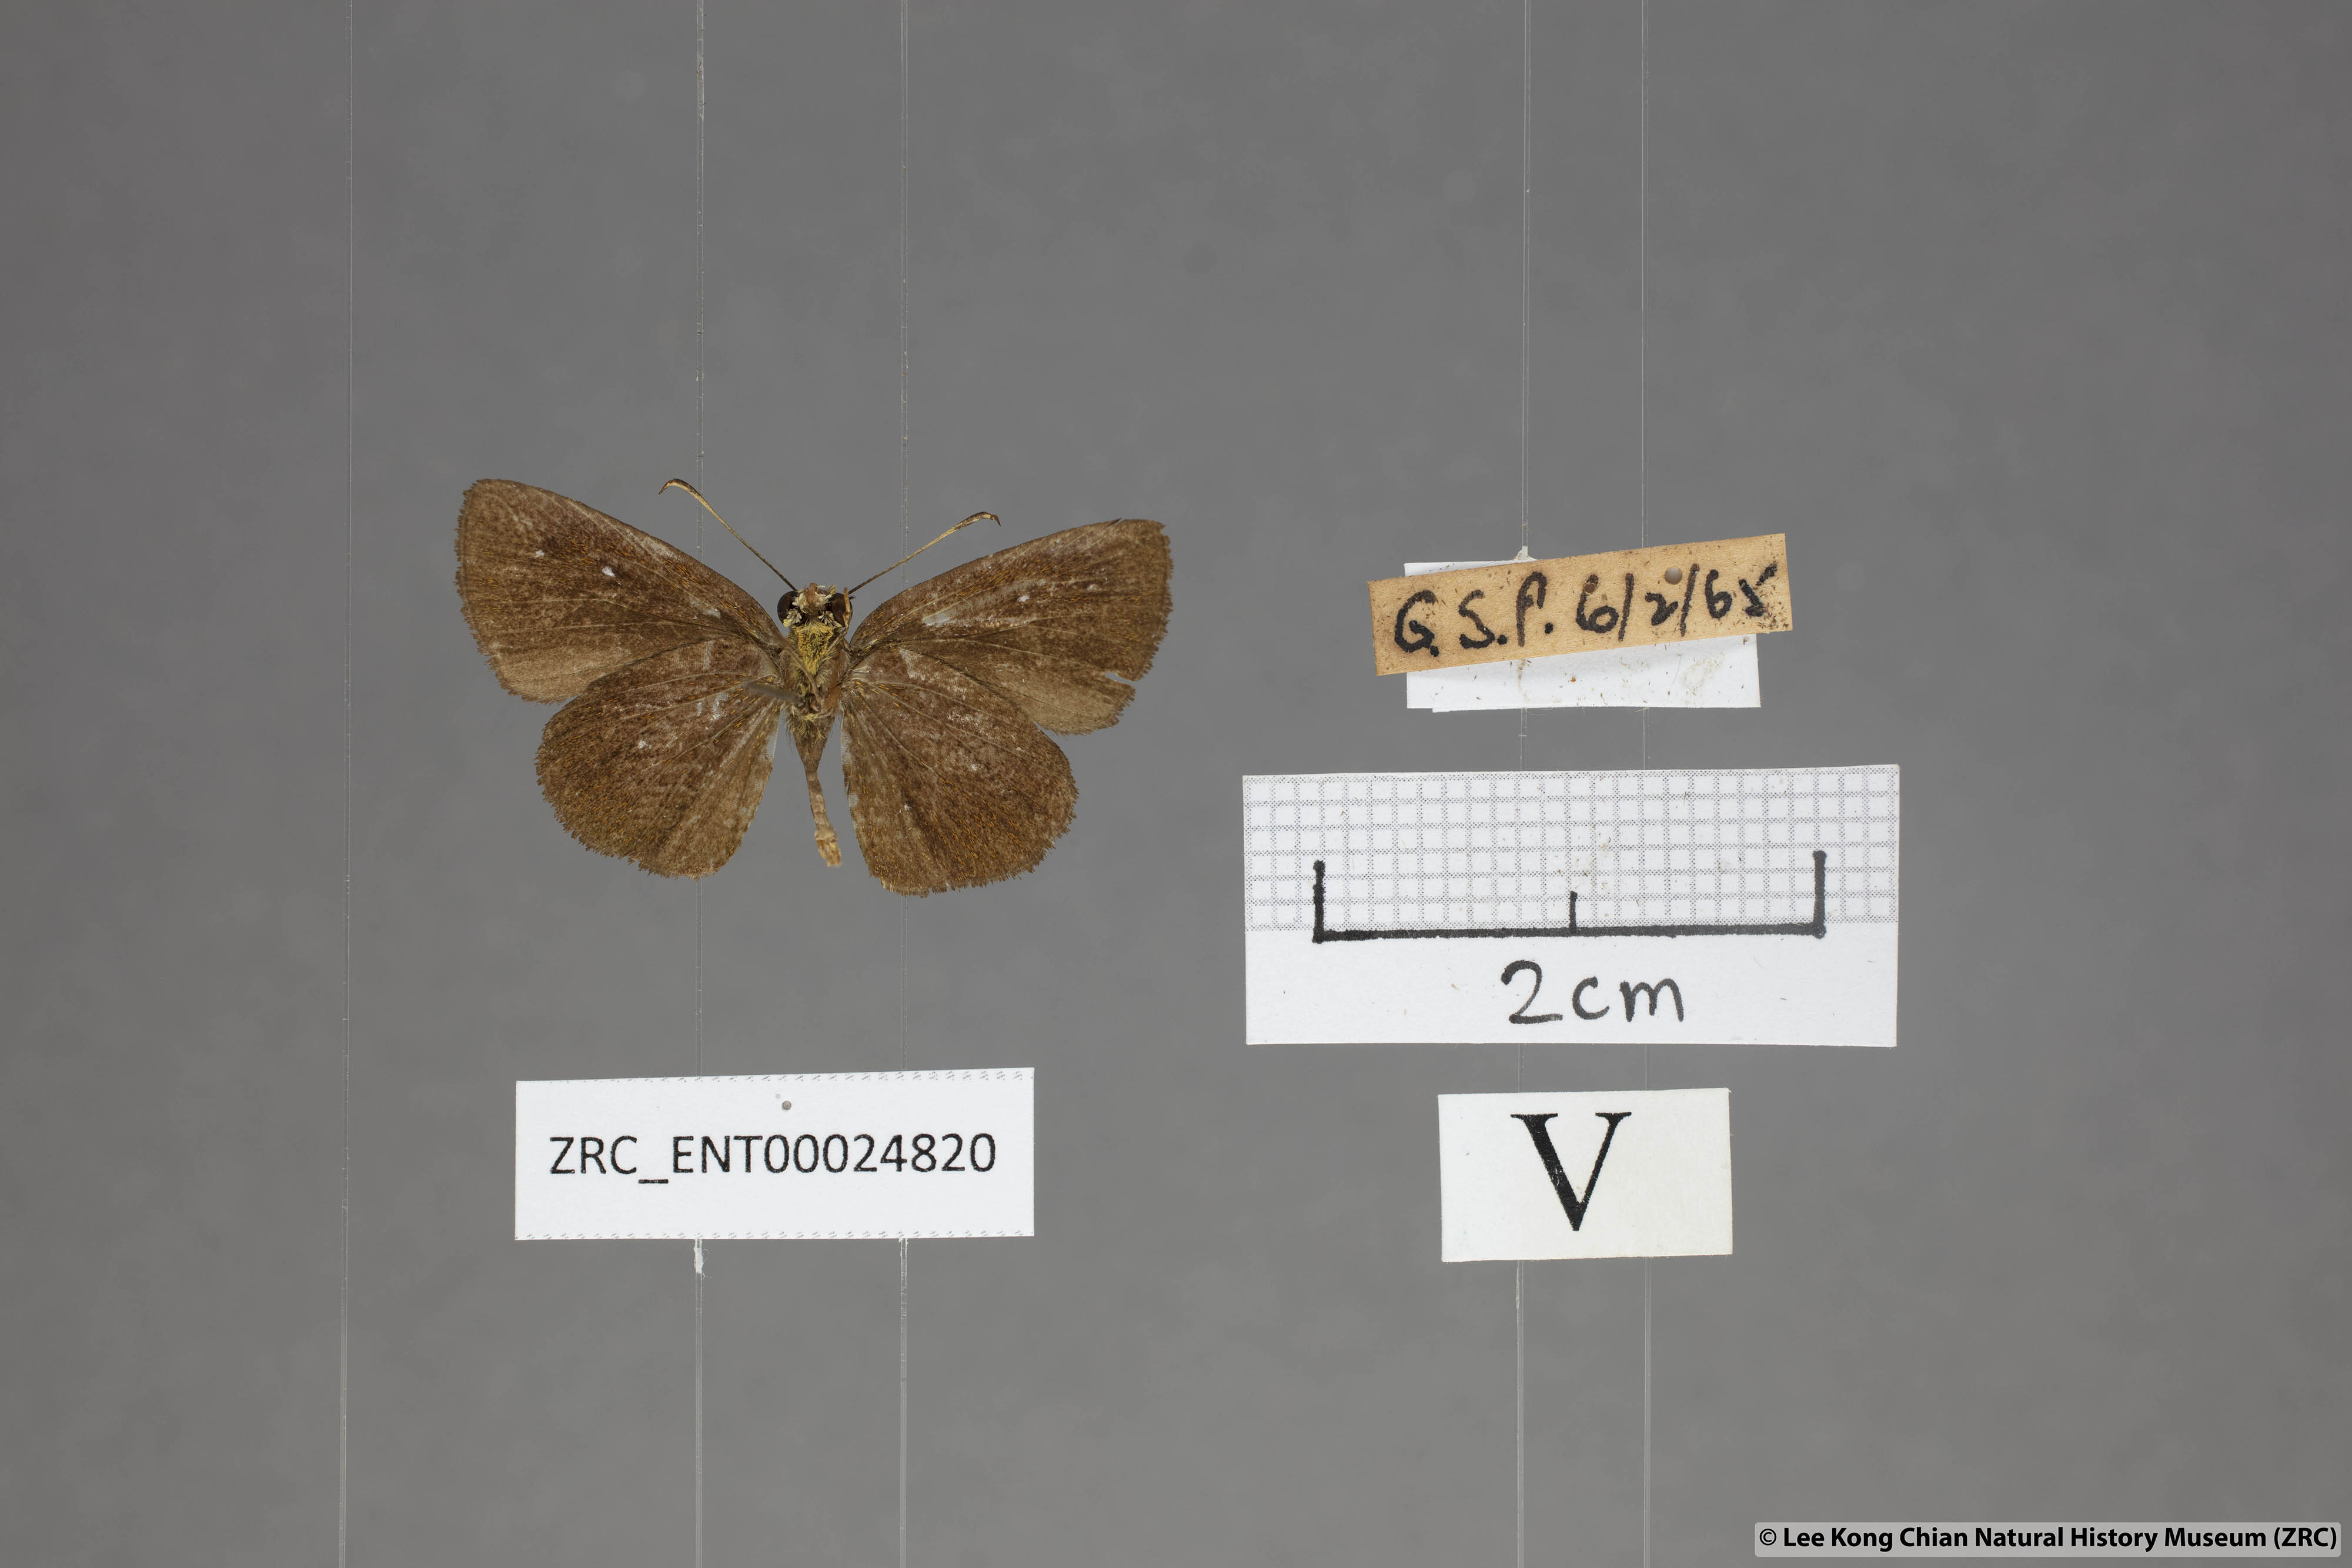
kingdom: Animalia
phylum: Arthropoda
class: Insecta
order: Lepidoptera
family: Hesperiidae
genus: Iambrix
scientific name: Iambrix salsala
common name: Chestnut bob
